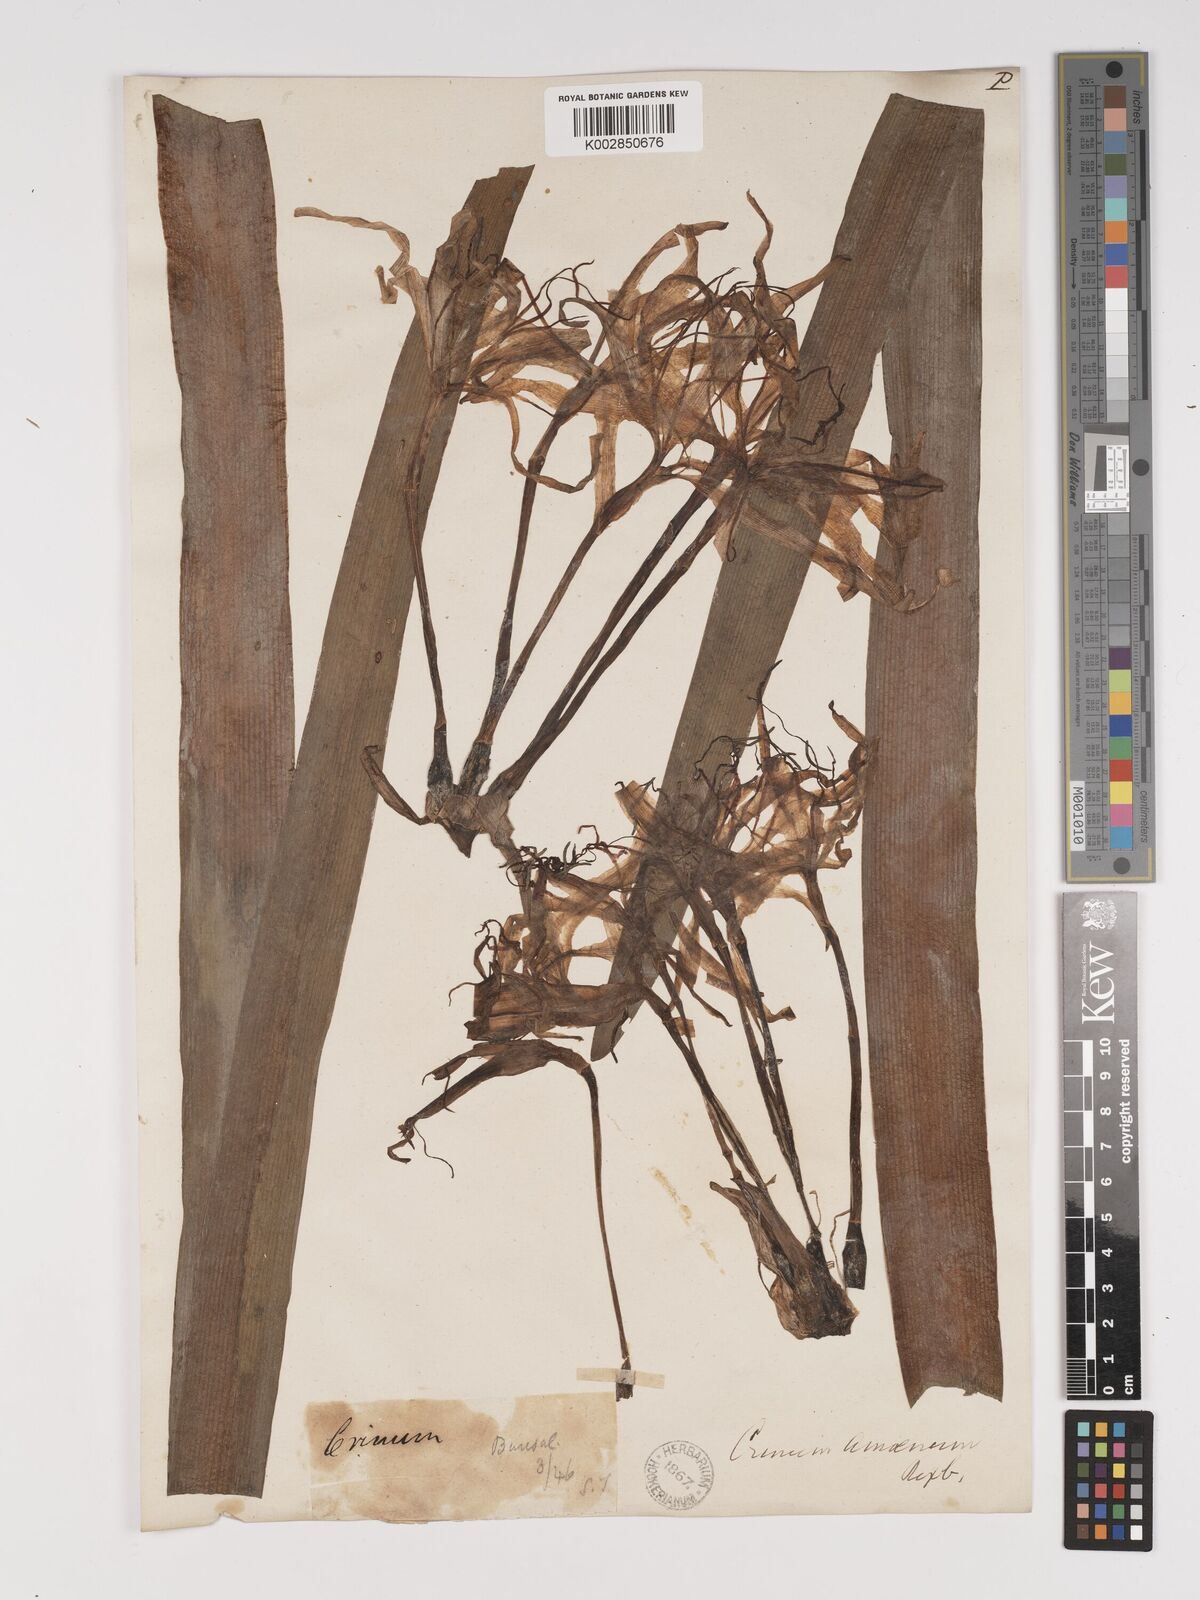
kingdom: Plantae
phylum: Tracheophyta
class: Liliopsida
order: Asparagales
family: Amaryllidaceae
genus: Crinum
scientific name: Crinum amoenum
